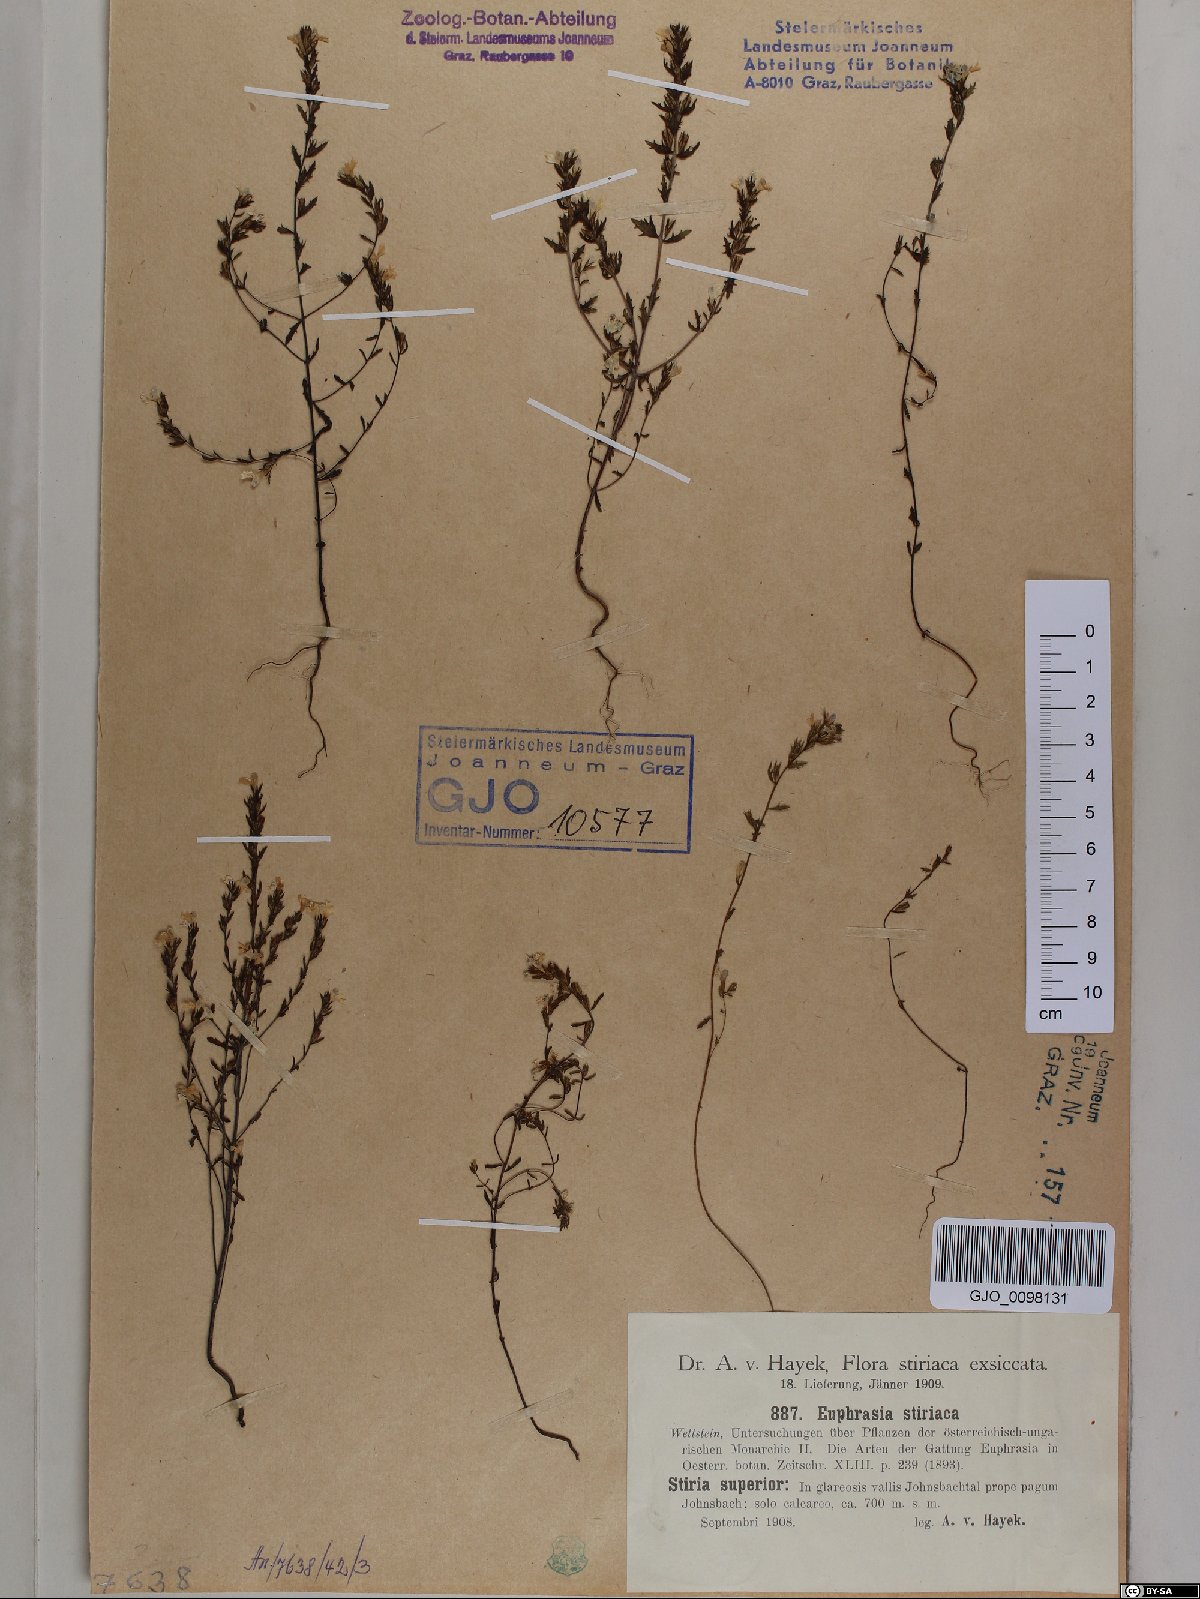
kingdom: Plantae
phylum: Tracheophyta
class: Magnoliopsida
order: Lamiales
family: Orobanchaceae
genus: Euphrasia
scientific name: Euphrasia cuspidata
